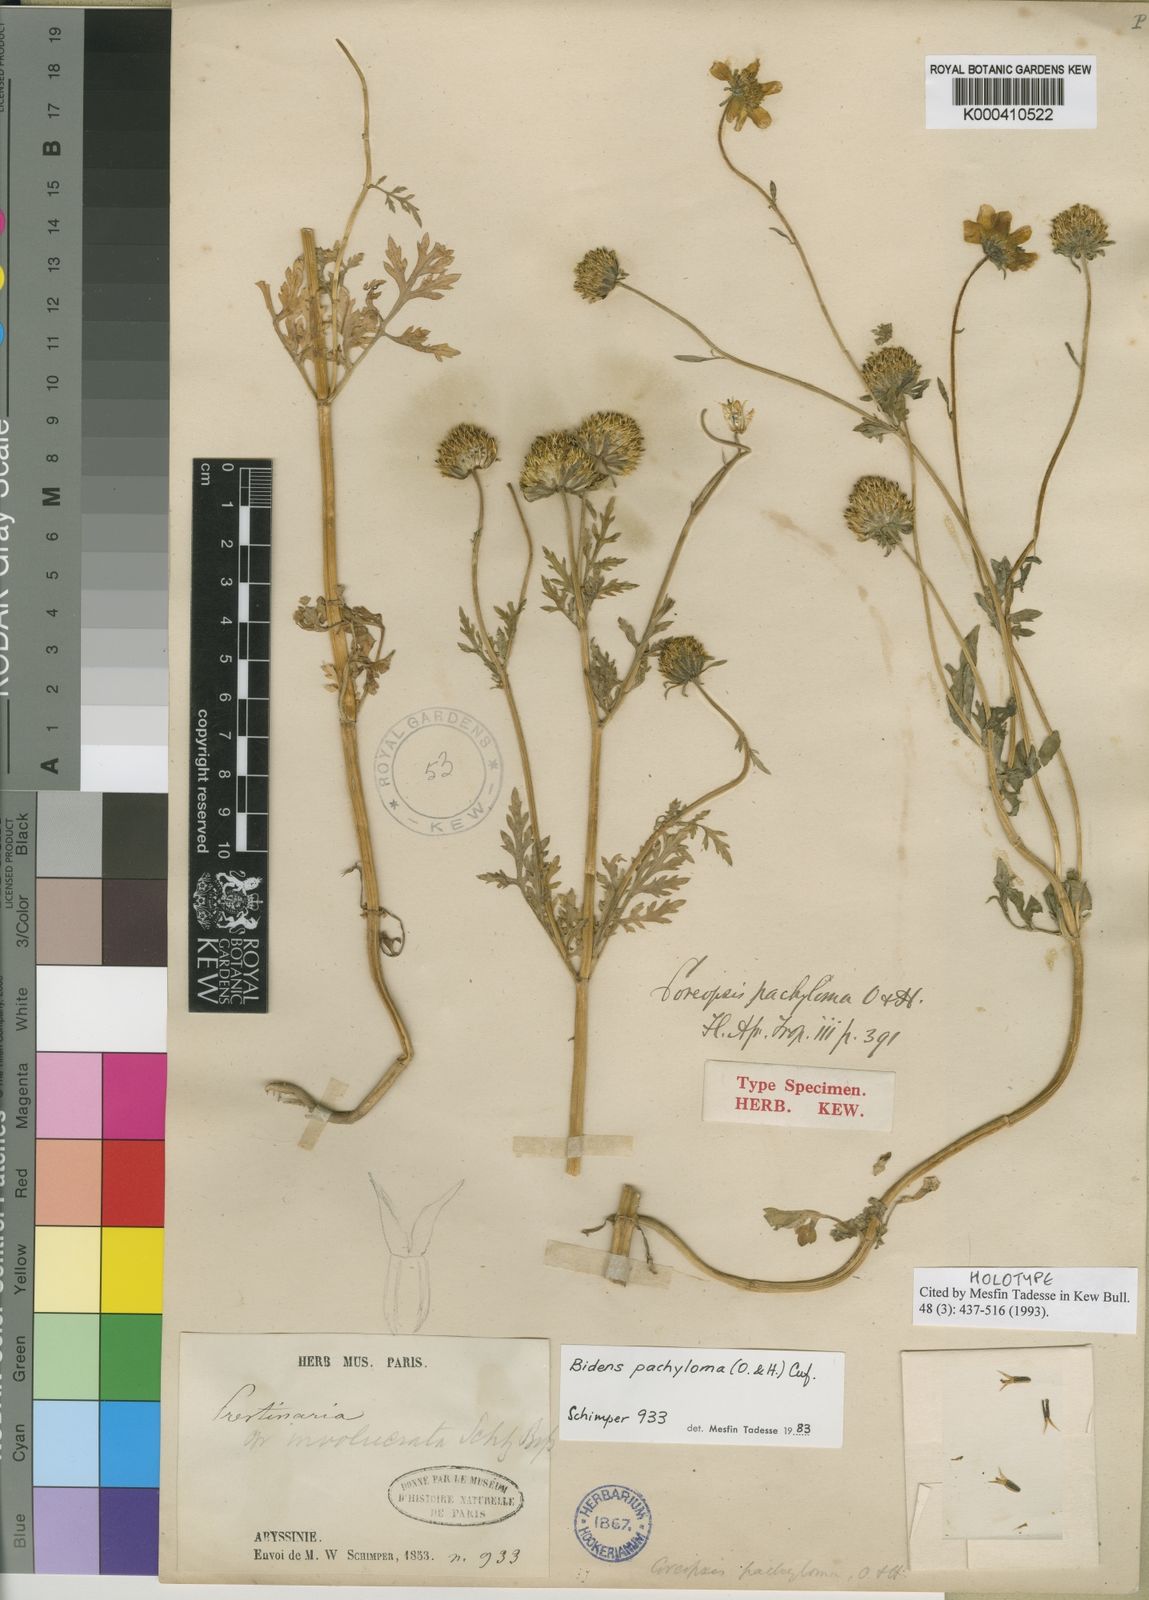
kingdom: Plantae
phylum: Tracheophyta
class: Magnoliopsida
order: Asterales
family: Asteraceae
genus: Bidens
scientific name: Bidens pachyloma
